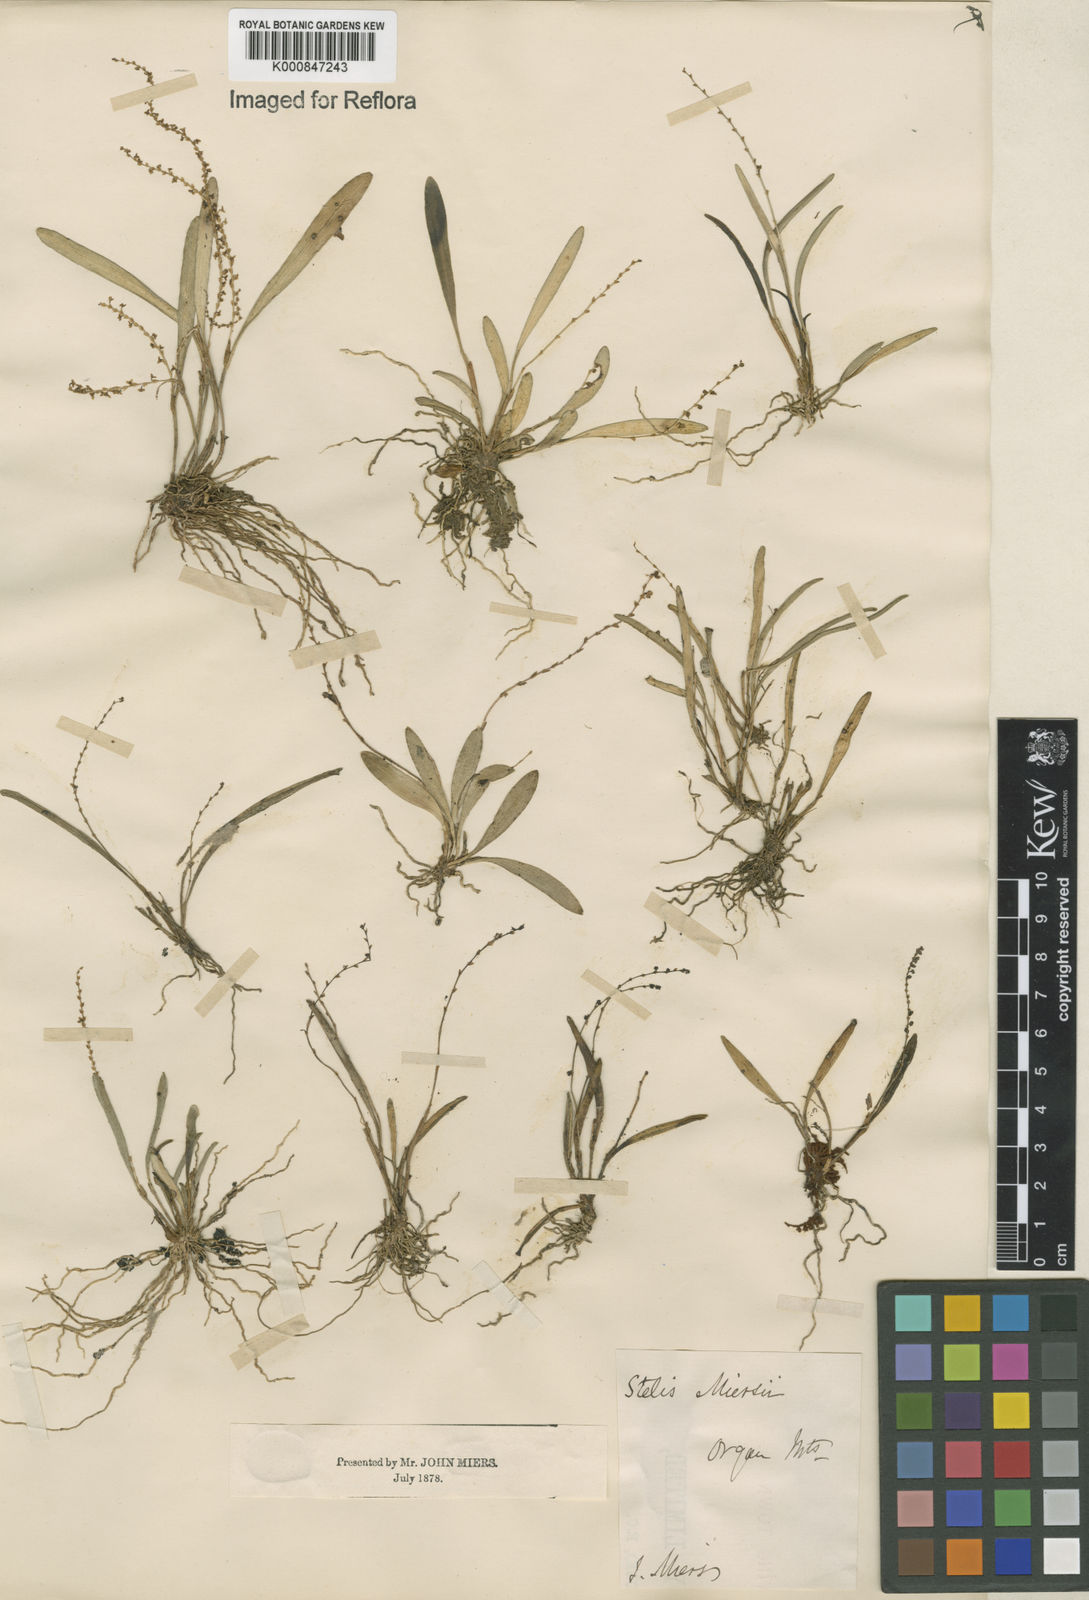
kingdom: Plantae
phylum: Tracheophyta
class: Liliopsida
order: Asparagales
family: Orchidaceae
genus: Stelis
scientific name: Stelis aprica
